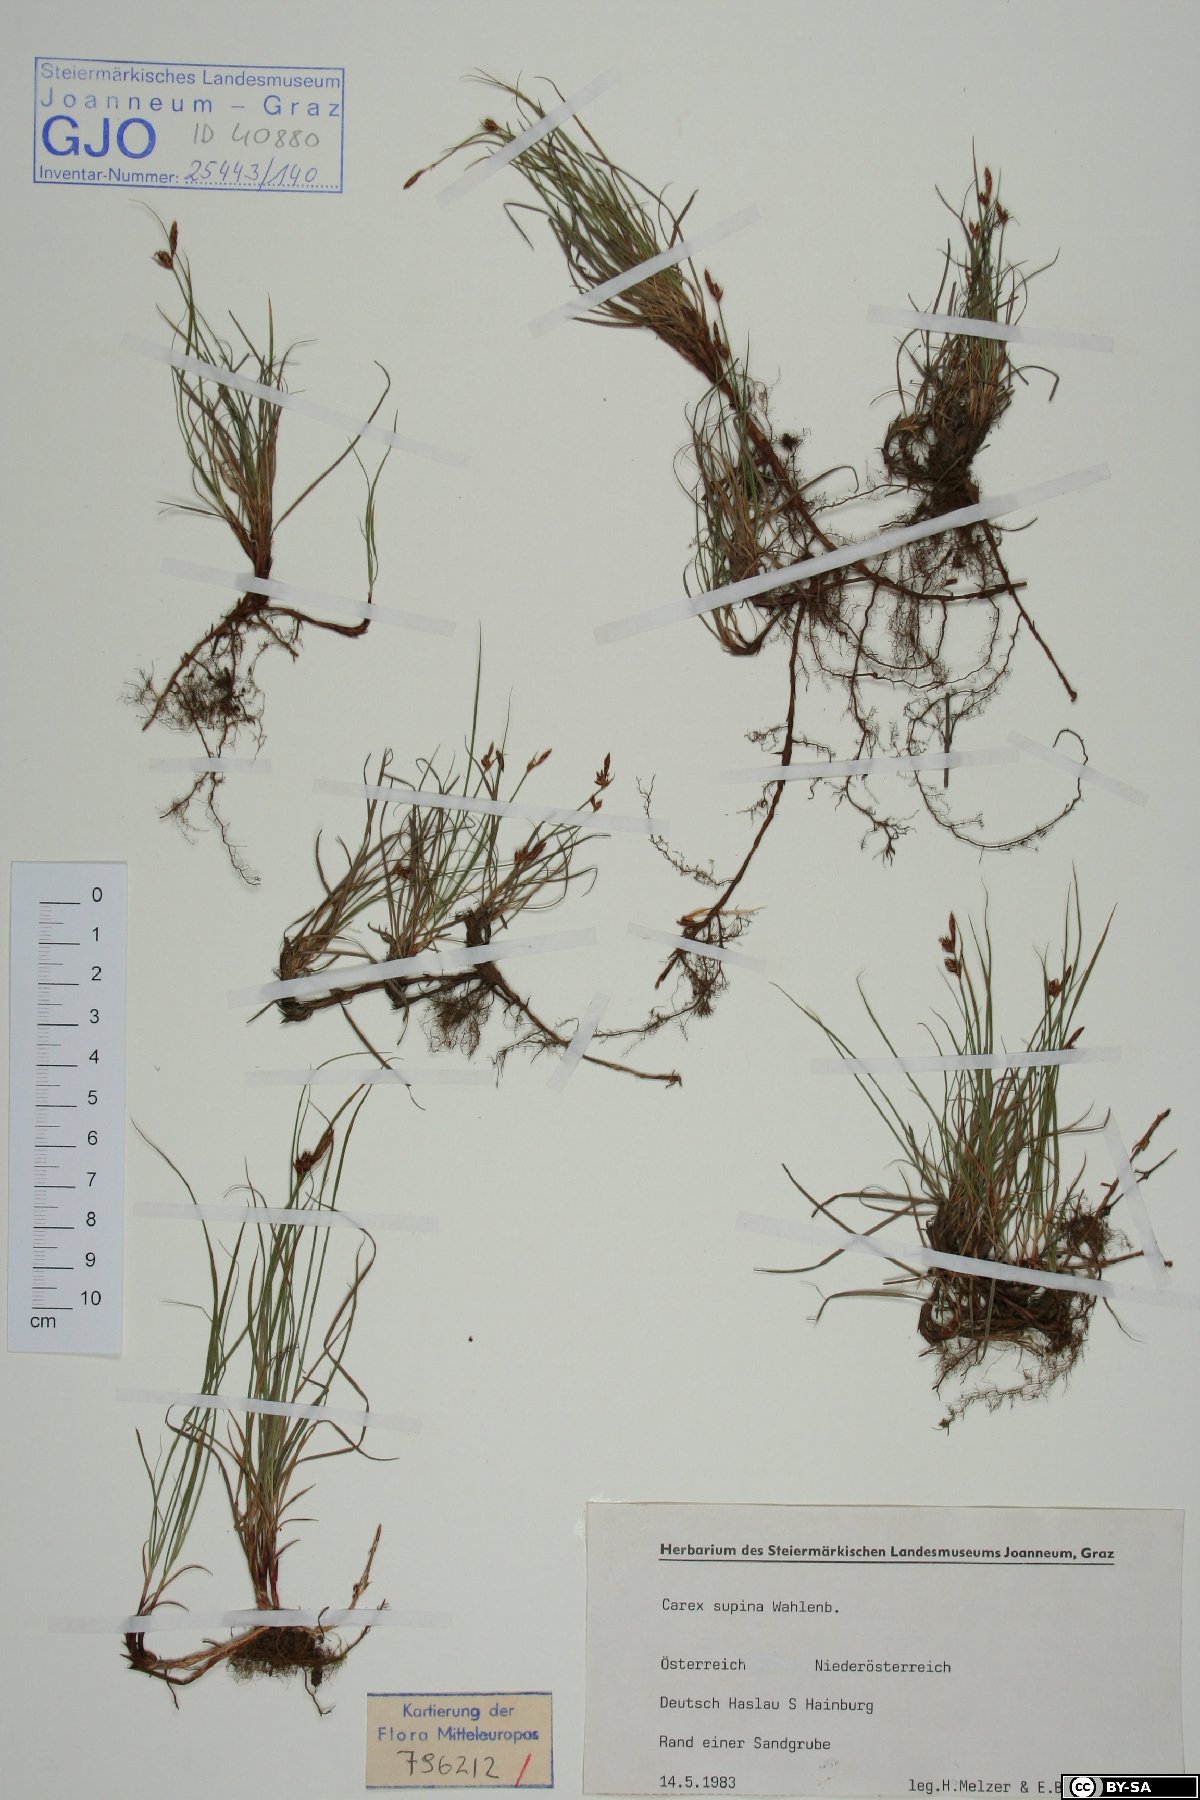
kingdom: Plantae
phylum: Tracheophyta
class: Liliopsida
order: Poales
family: Cyperaceae
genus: Carex
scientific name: Carex supina
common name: Lying-back sedge
